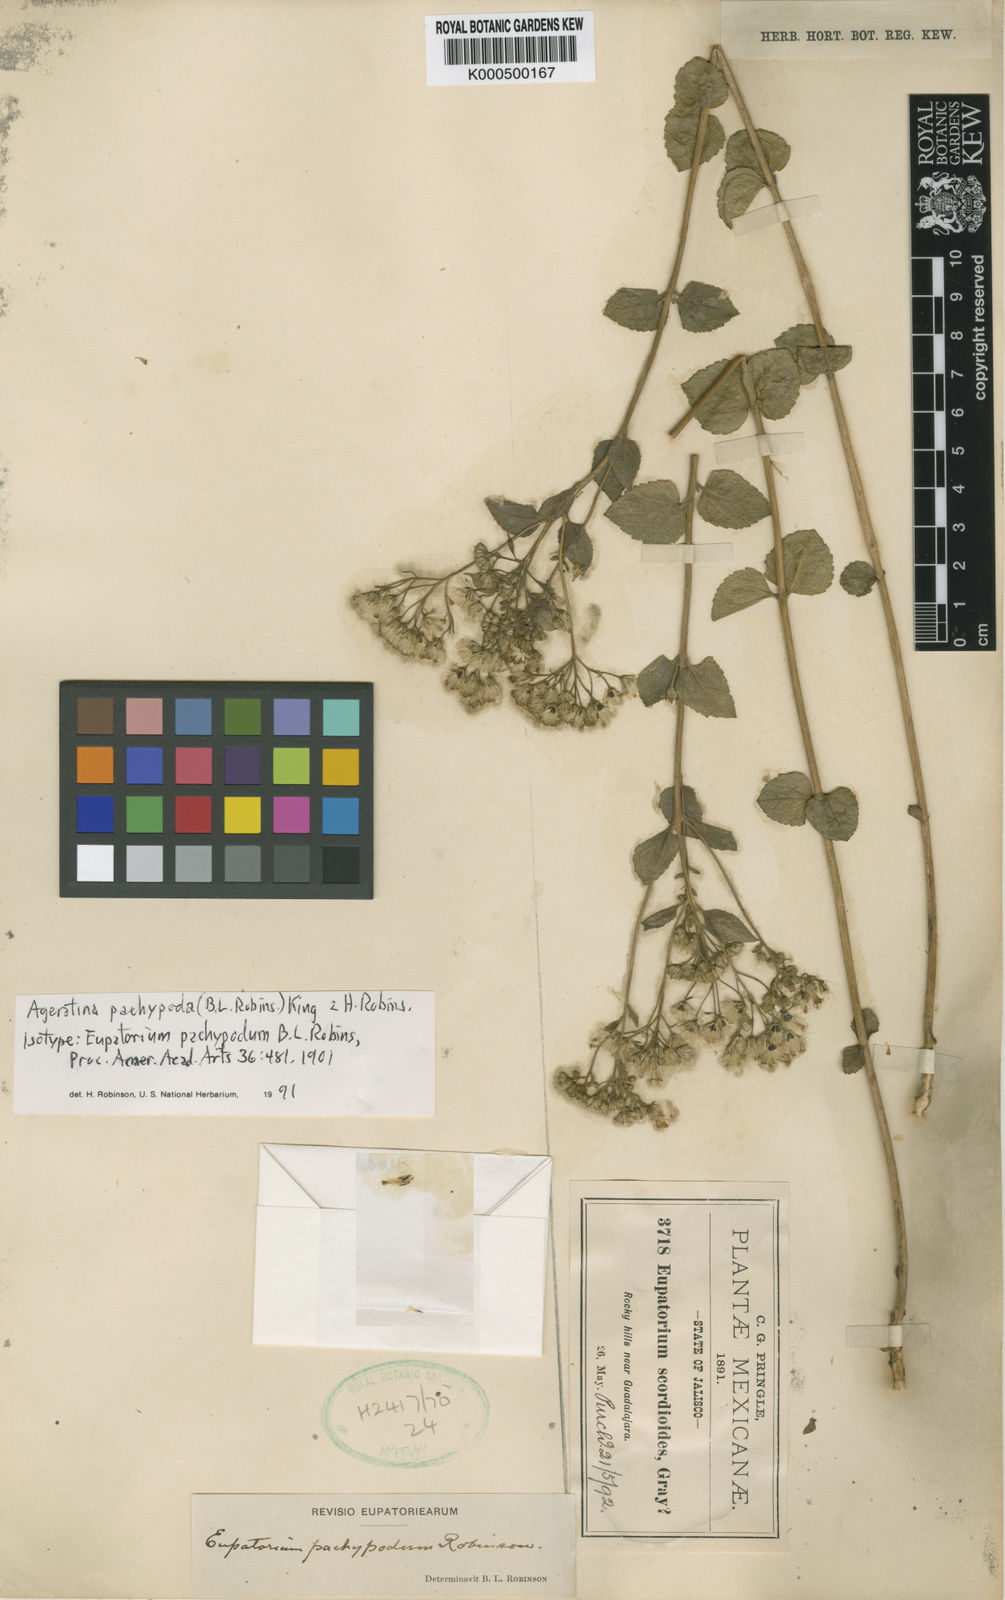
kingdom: Plantae
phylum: Tracheophyta
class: Magnoliopsida
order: Asterales
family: Asteraceae
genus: Ageratina
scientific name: Ageratina leptodictyon
